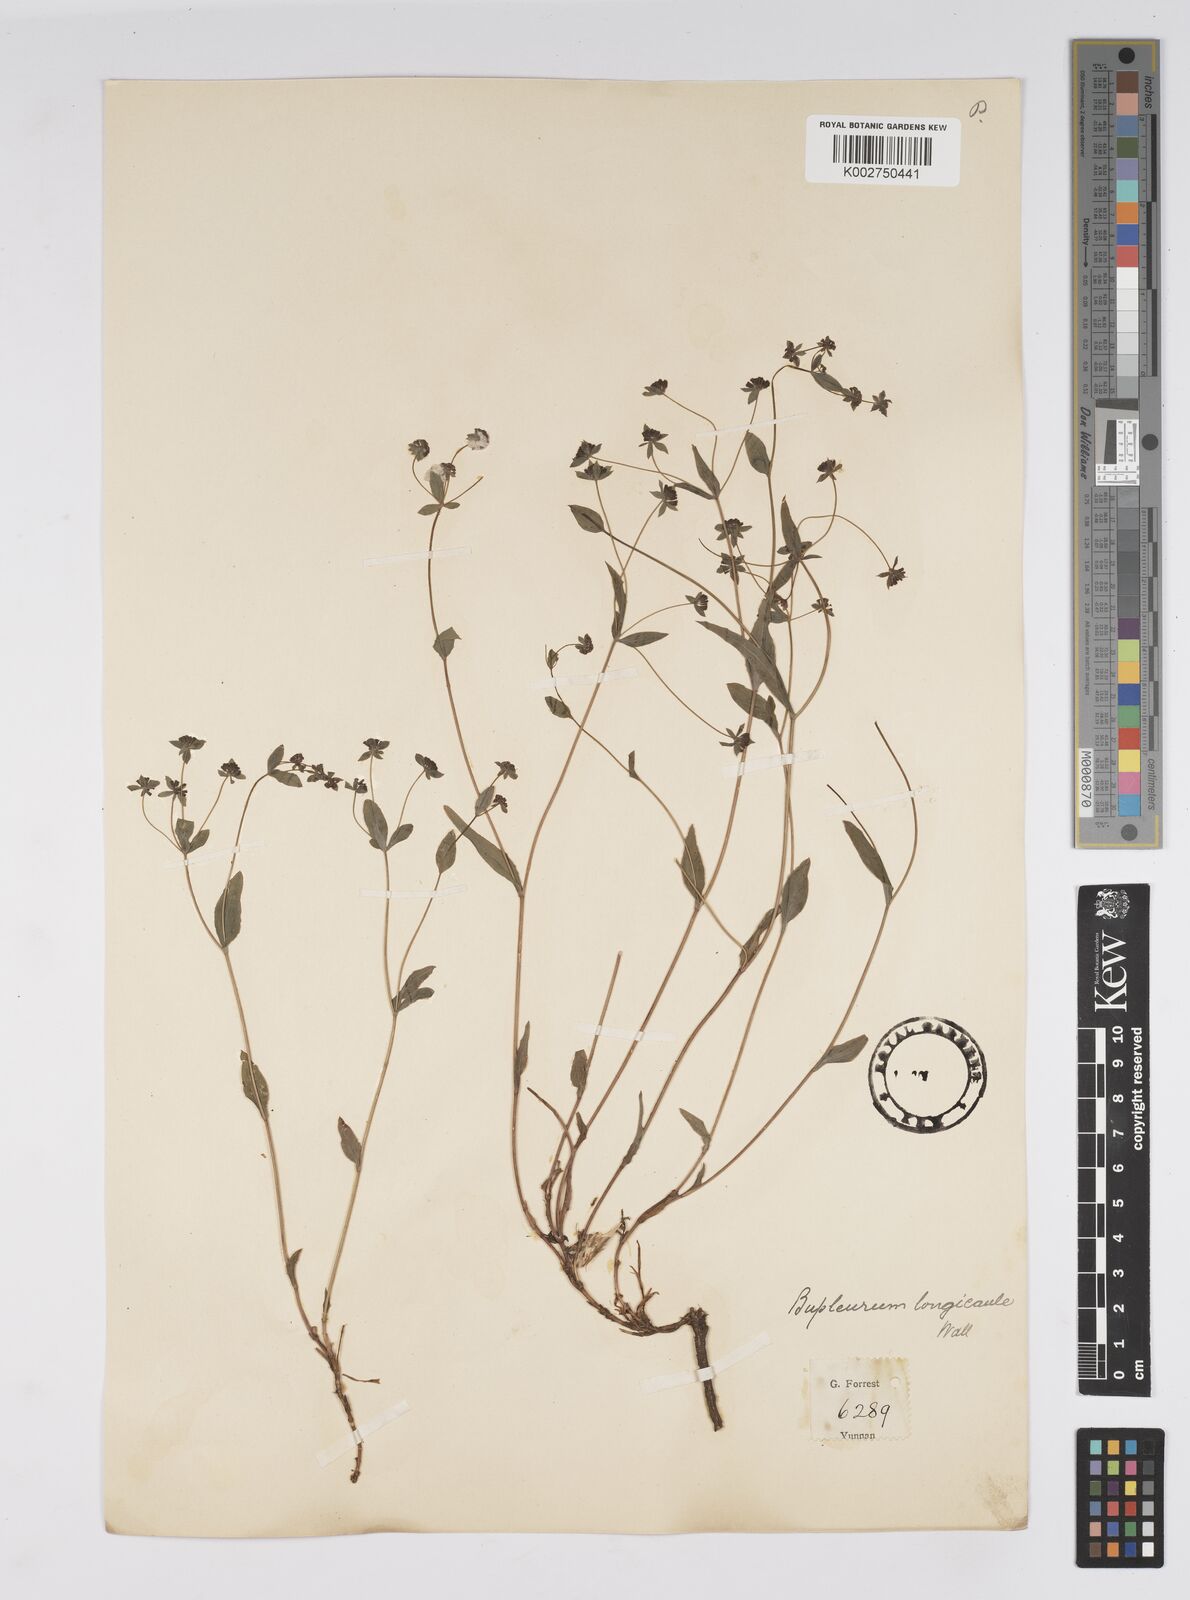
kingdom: Plantae
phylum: Tracheophyta
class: Magnoliopsida
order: Apiales
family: Apiaceae
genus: Bupleurum
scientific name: Bupleurum longicaule
